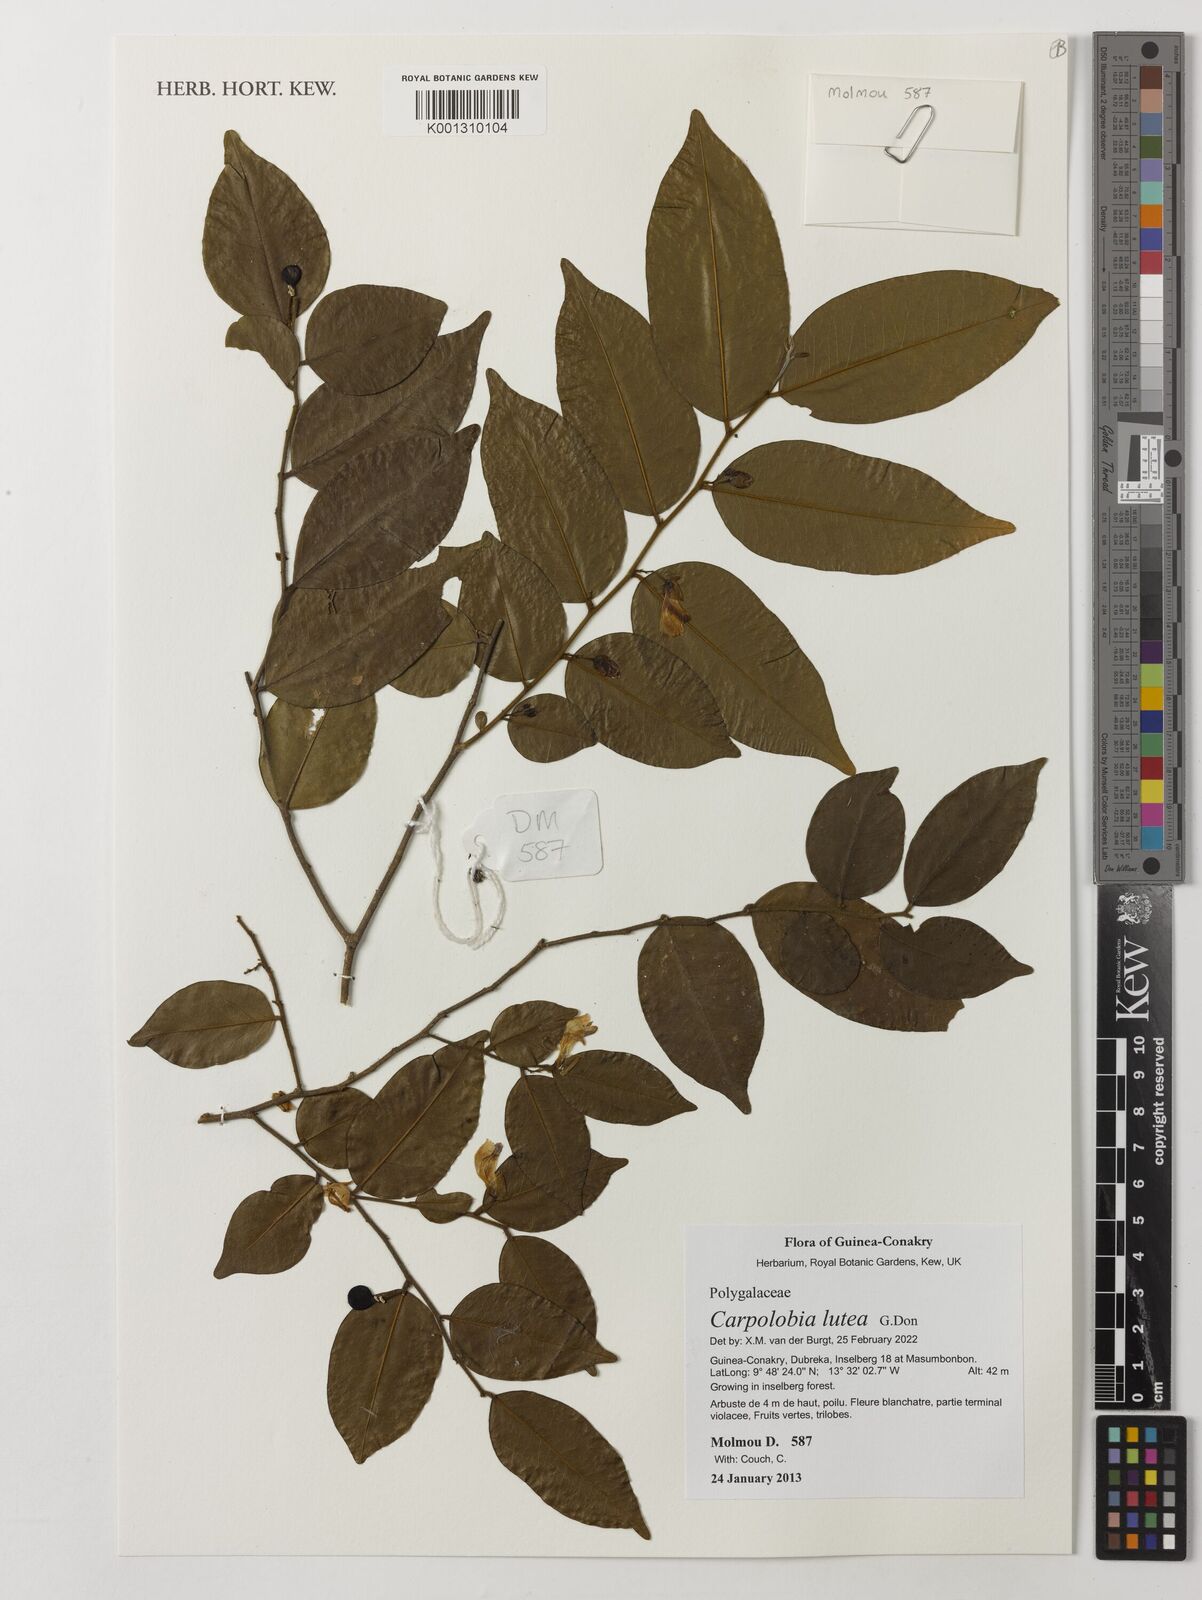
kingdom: Plantae
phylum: Tracheophyta
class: Magnoliopsida
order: Fabales
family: Polygalaceae
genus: Carpolobia
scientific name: Carpolobia lutea
